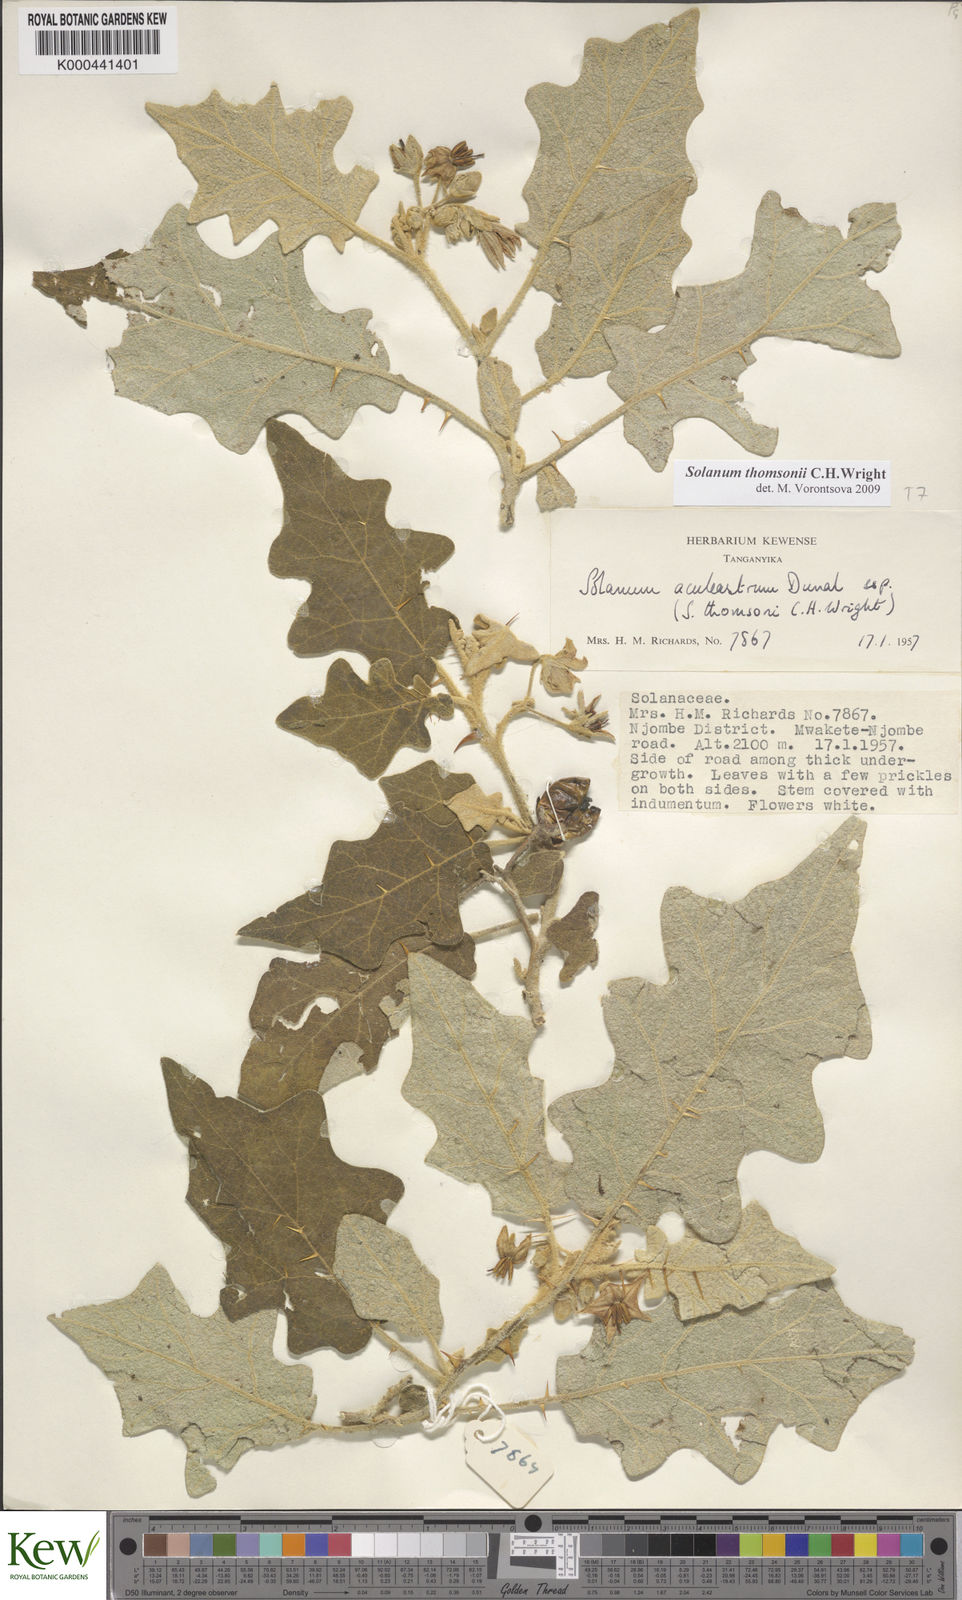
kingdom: Plantae
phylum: Tracheophyta
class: Magnoliopsida
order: Solanales
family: Solanaceae
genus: Solanum
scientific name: Solanum aculeastrum
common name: Goat bitter-apple
